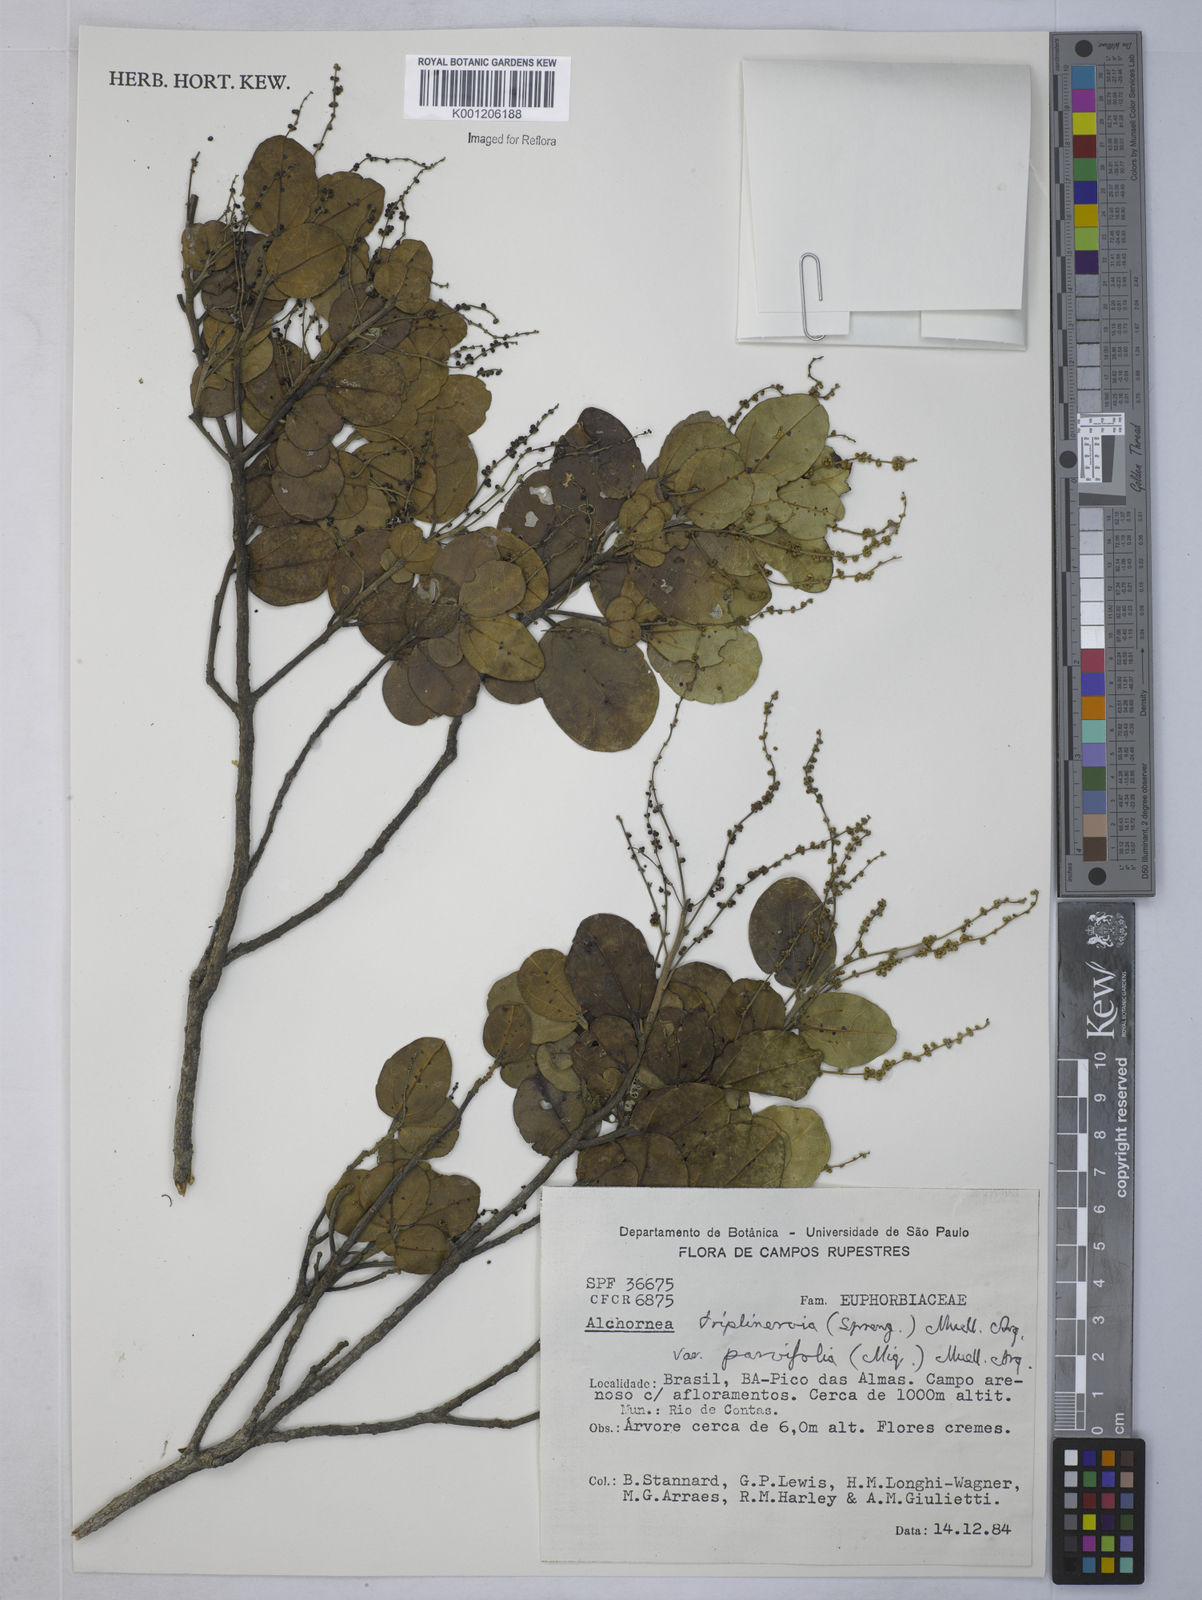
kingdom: Plantae
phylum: Tracheophyta
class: Magnoliopsida
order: Malpighiales
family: Euphorbiaceae
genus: Alchornea
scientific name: Alchornea
